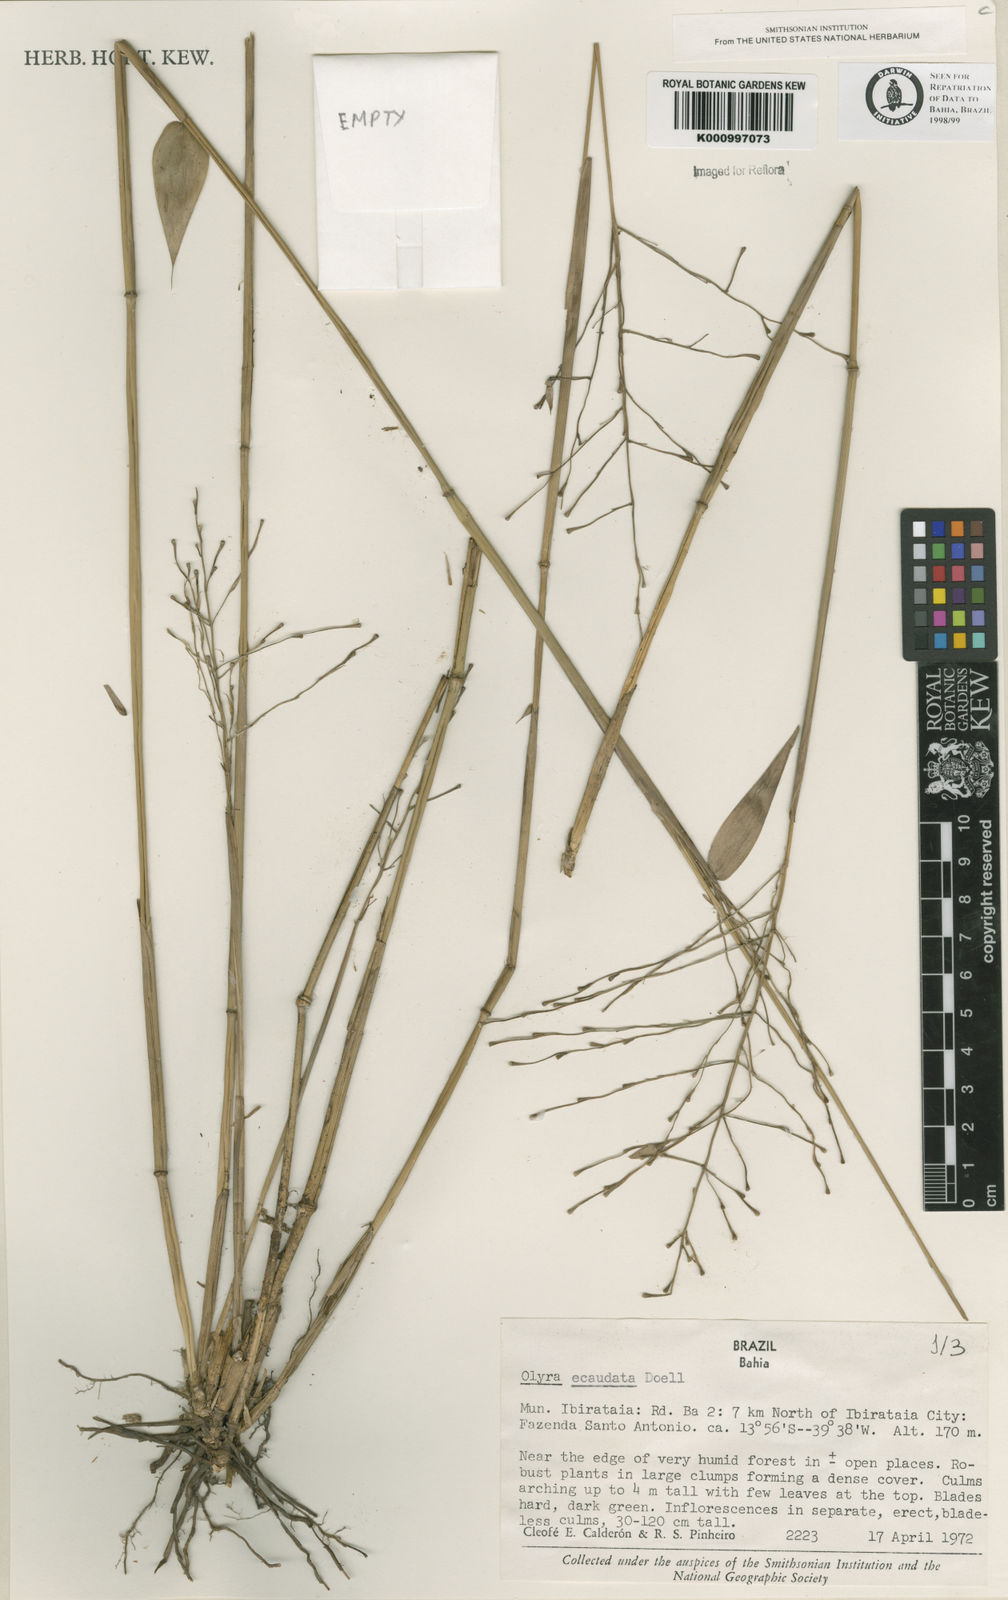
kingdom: Plantae
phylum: Tracheophyta
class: Liliopsida
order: Poales
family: Poaceae
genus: Olyra
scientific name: Olyra
